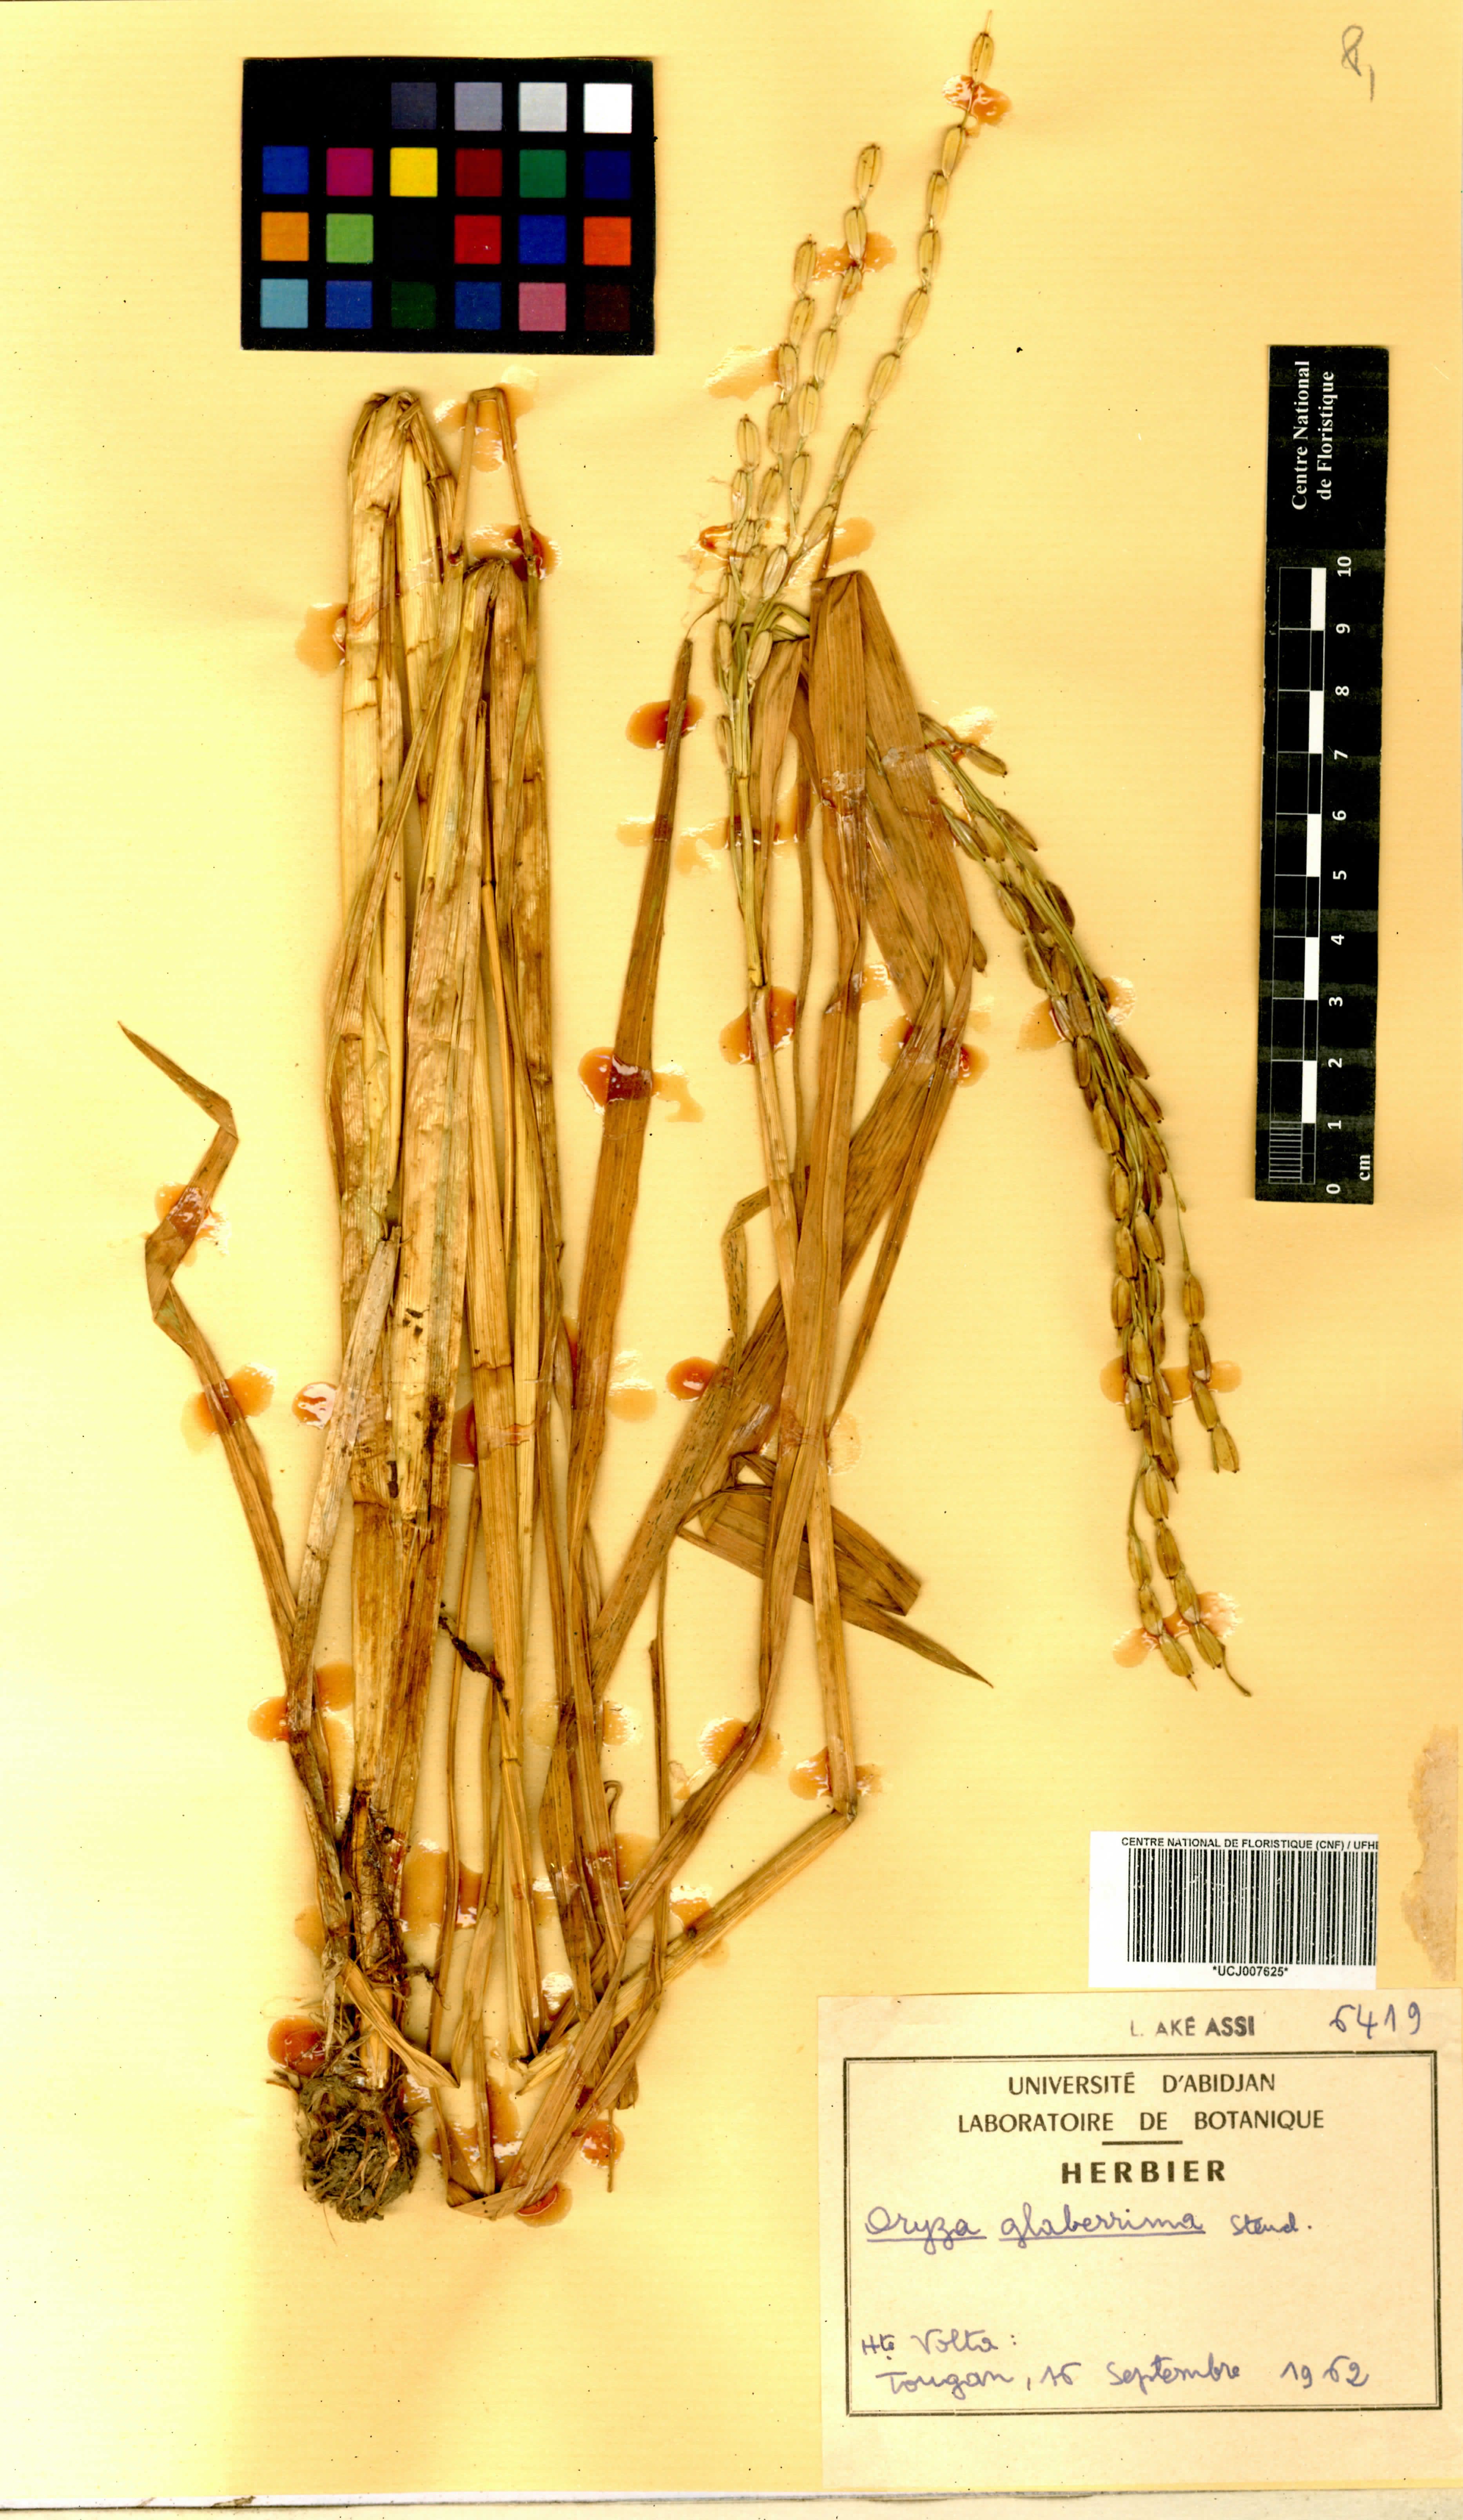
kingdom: Plantae
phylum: Tracheophyta
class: Liliopsida
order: Poales
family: Poaceae
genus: Oryza
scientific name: Oryza glaberrima
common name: African rice
